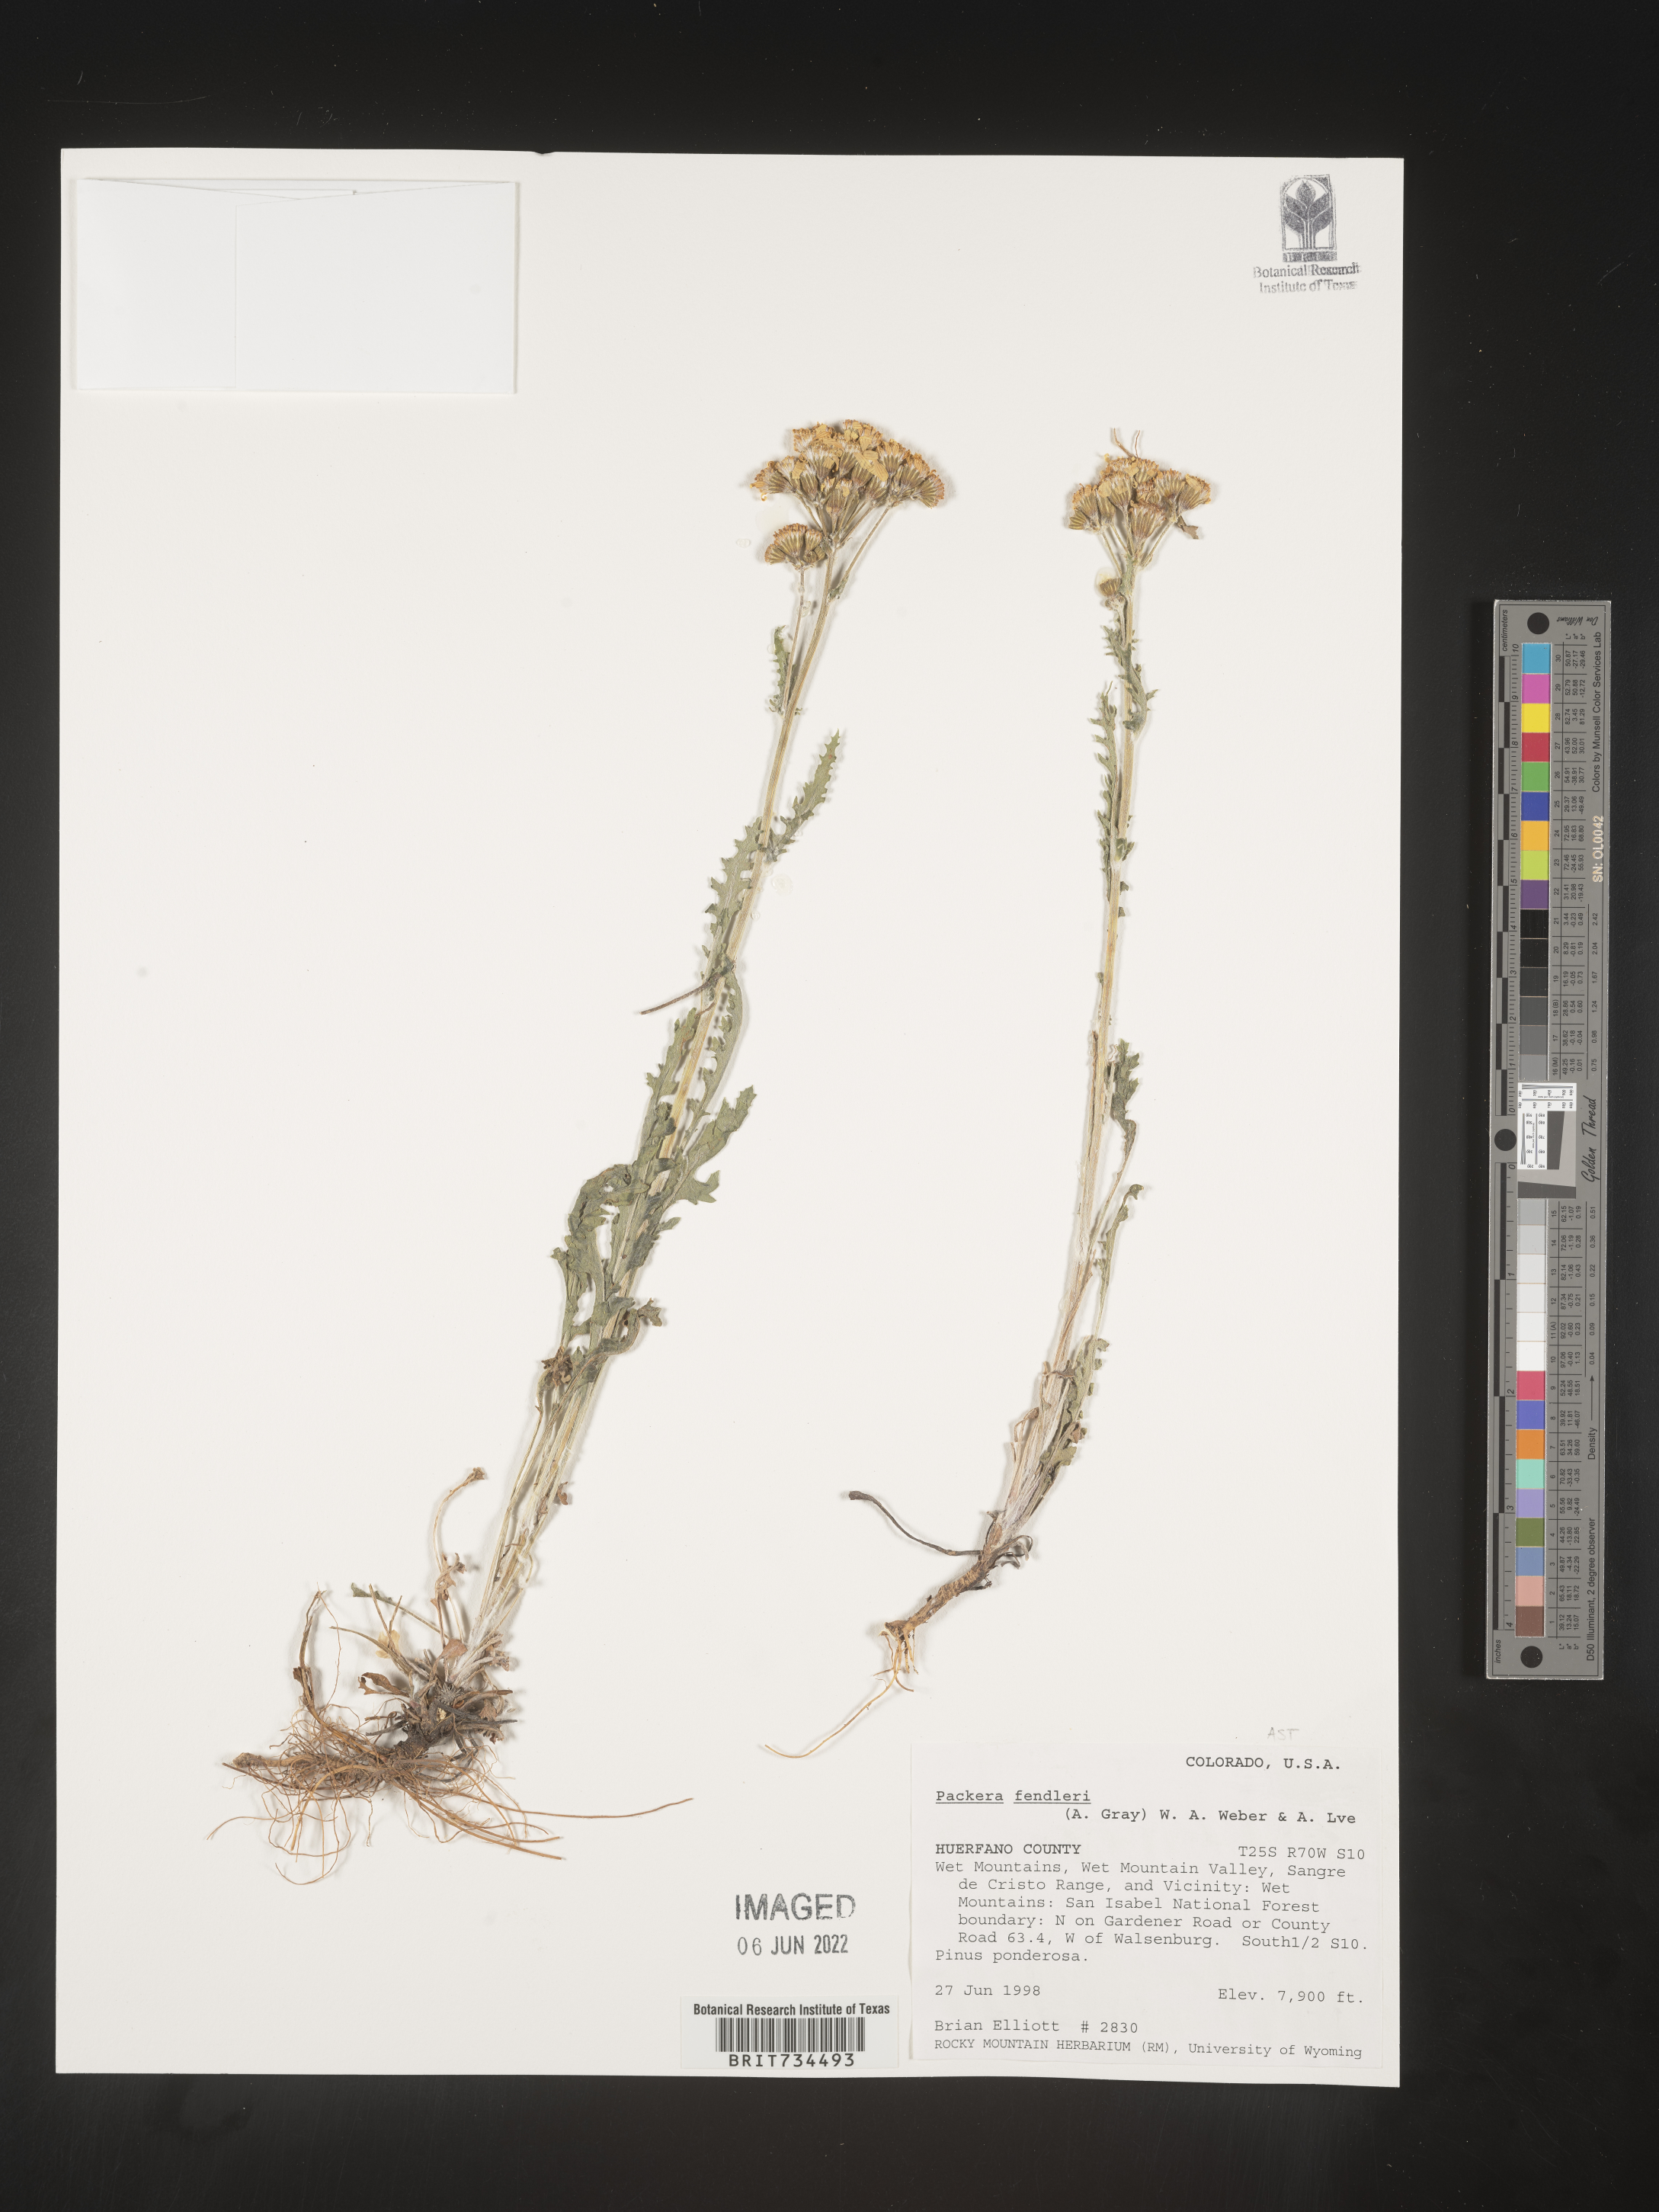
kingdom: Plantae
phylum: Tracheophyta
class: Magnoliopsida
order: Asterales
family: Asteraceae
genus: Packera
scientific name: Packera fendleri
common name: Notch-leaf butterweed
